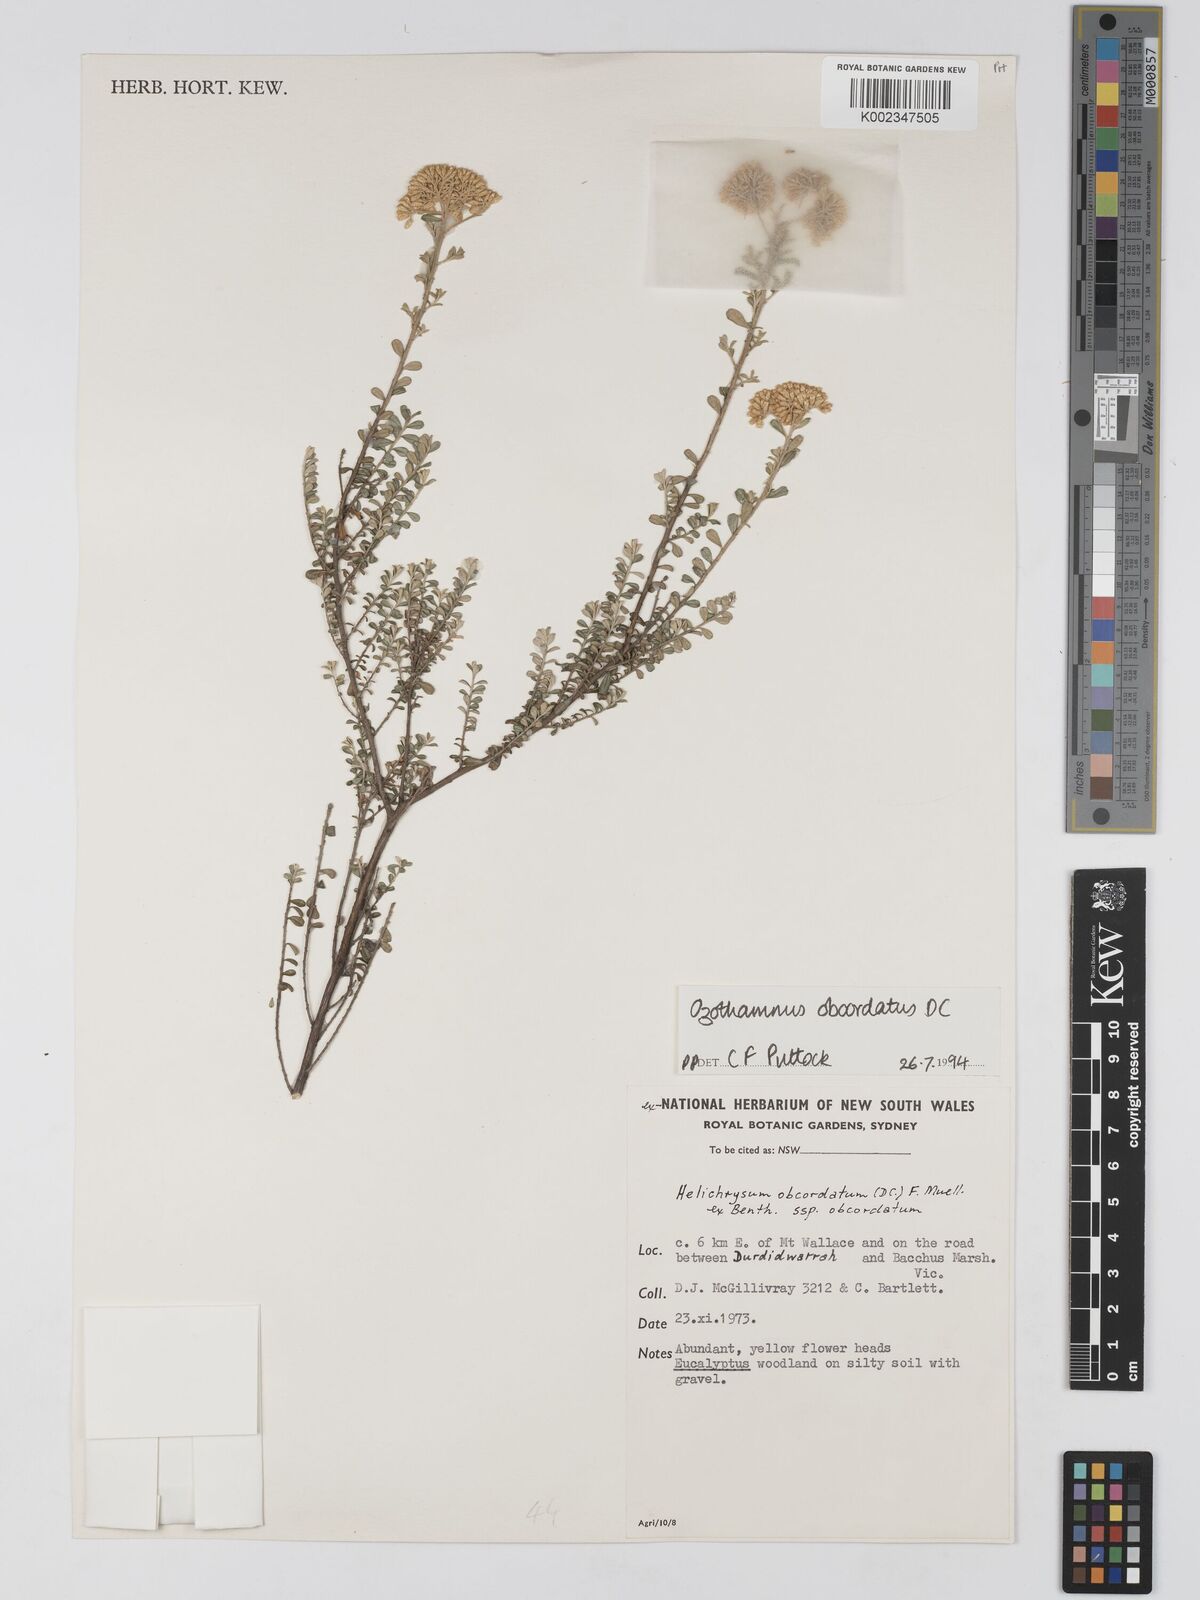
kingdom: Plantae
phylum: Tracheophyta
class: Magnoliopsida
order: Asterales
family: Asteraceae
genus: Ozothamnus
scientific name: Ozothamnus
